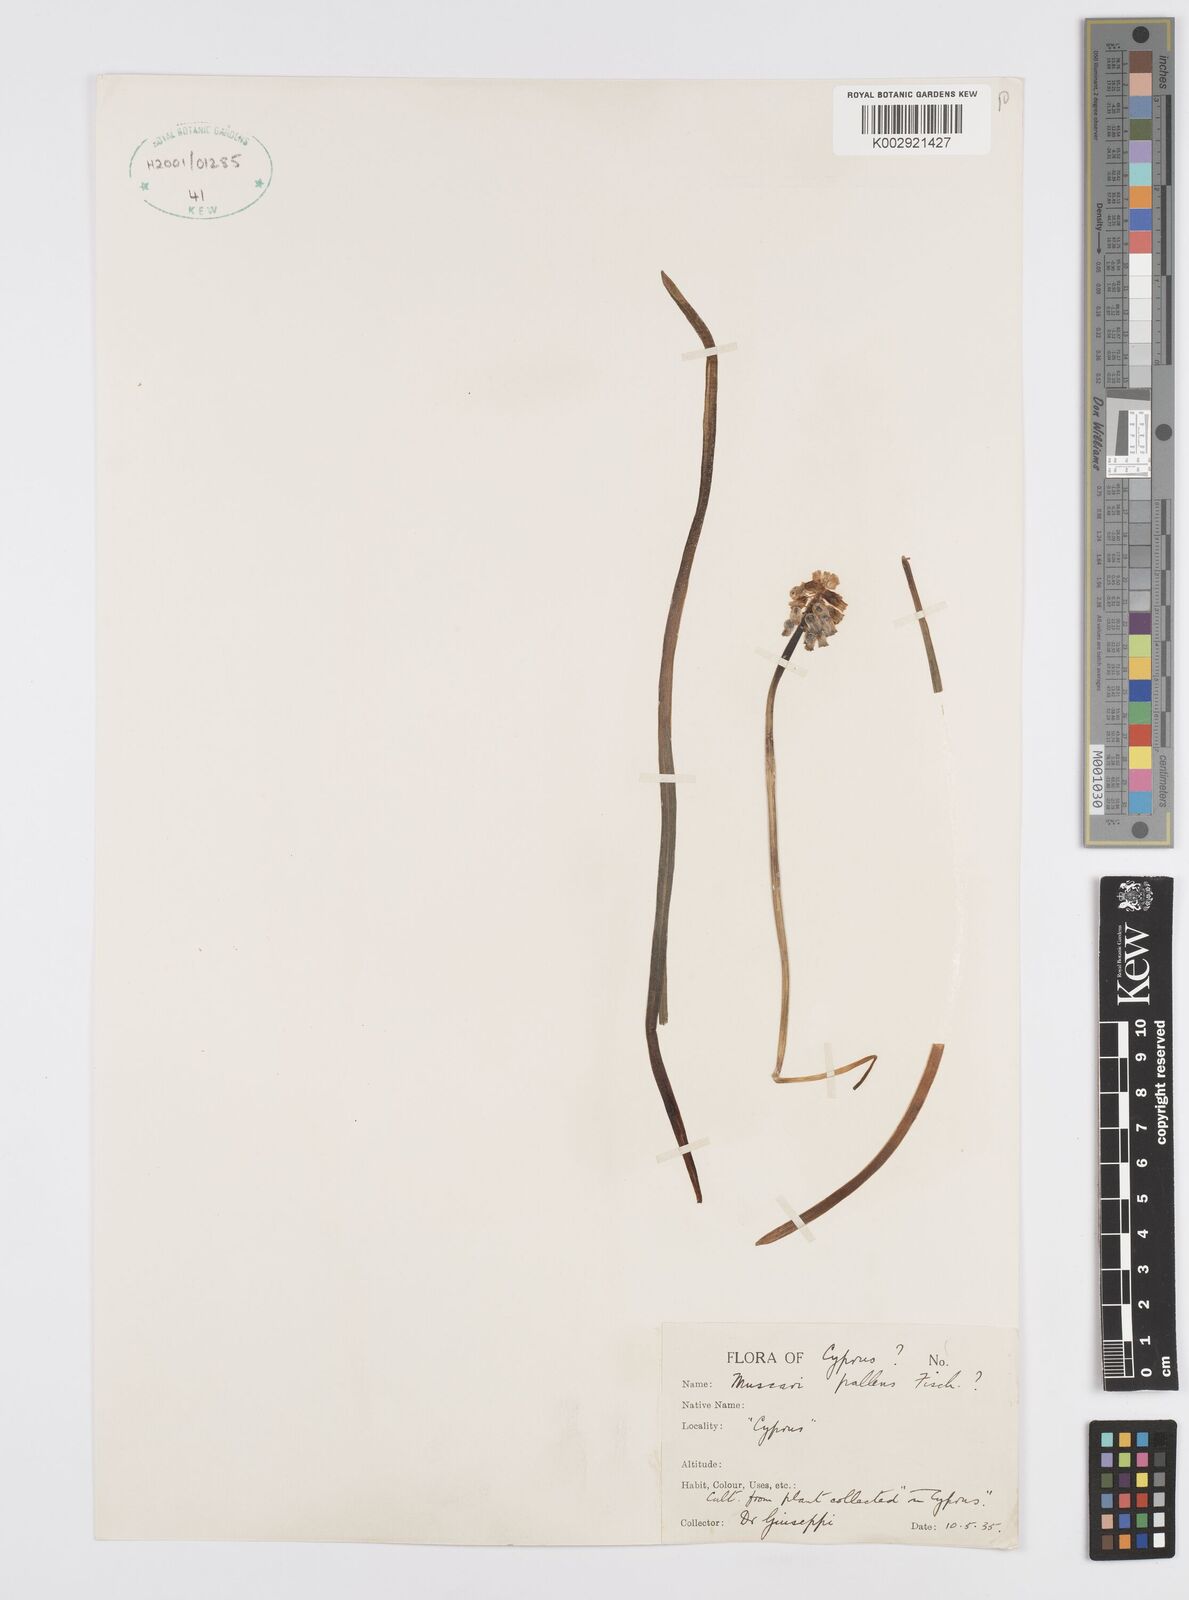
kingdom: Plantae
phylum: Tracheophyta
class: Liliopsida
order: Asparagales
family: Asparagaceae
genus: Muscari
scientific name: Muscari pallens
